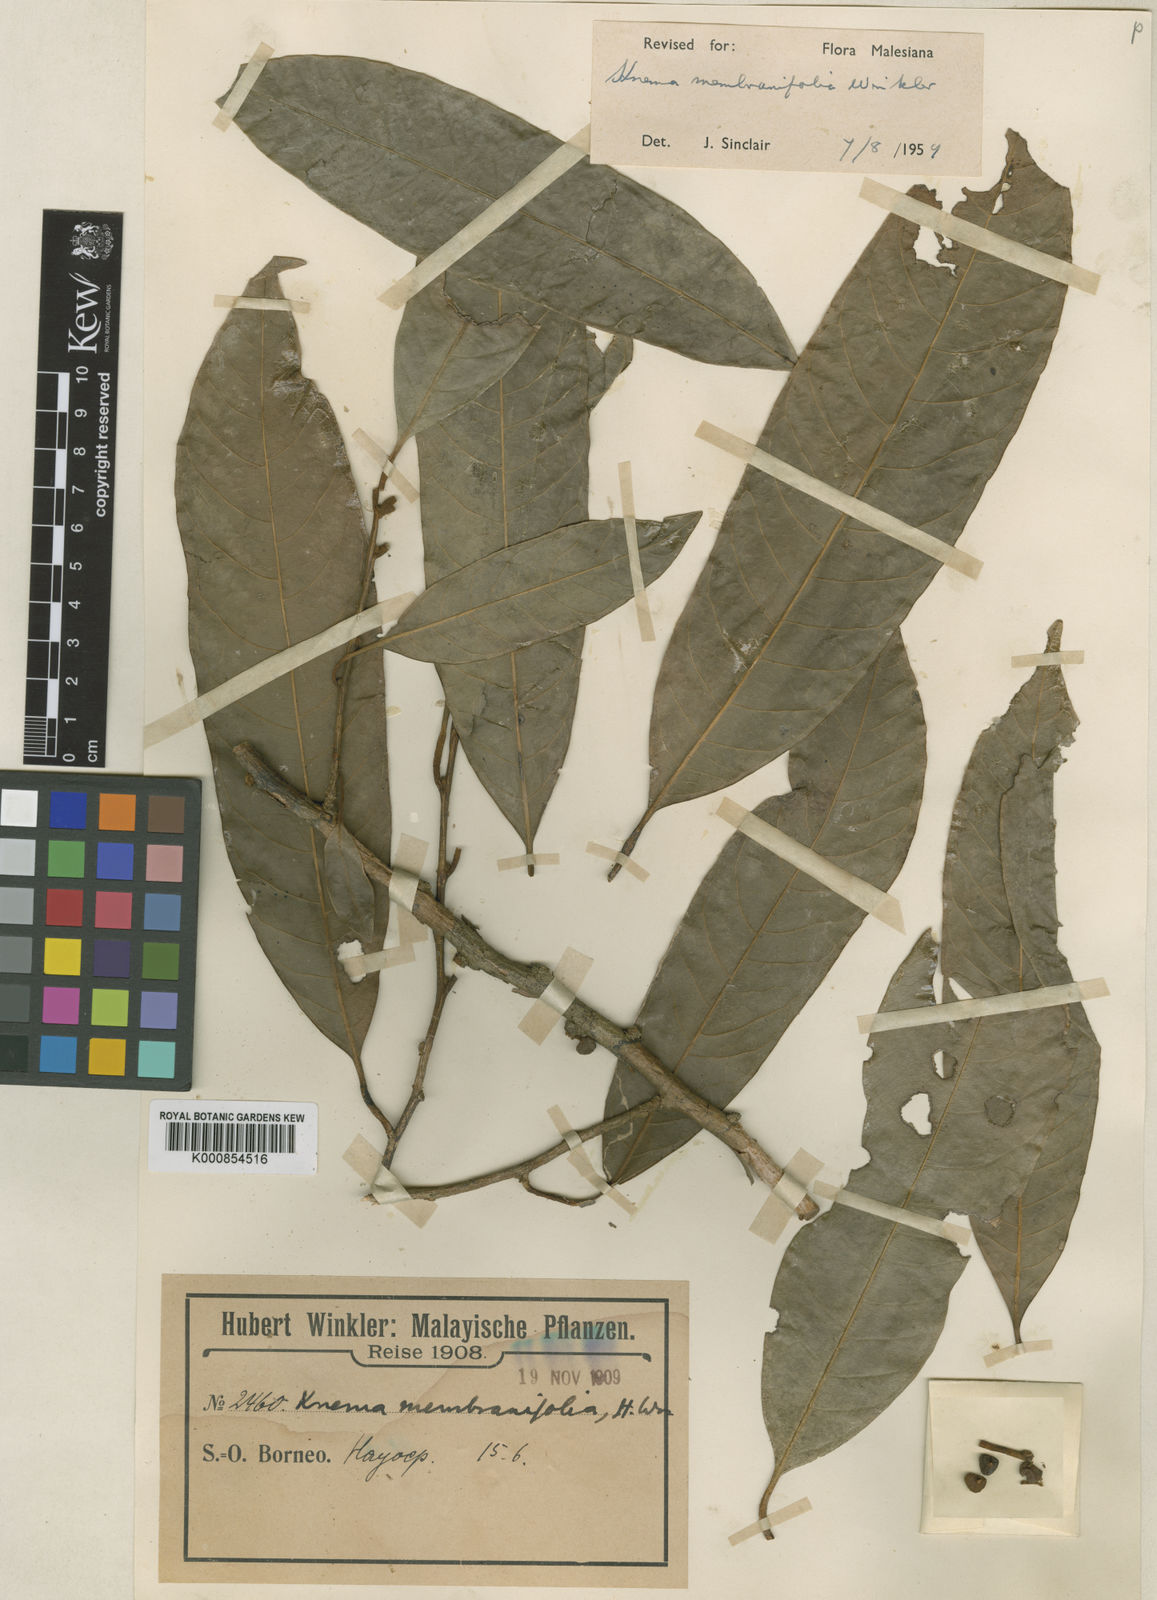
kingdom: Plantae
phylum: Tracheophyta
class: Magnoliopsida
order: Magnoliales
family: Myristicaceae
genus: Knema
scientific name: Knema membranifolia
